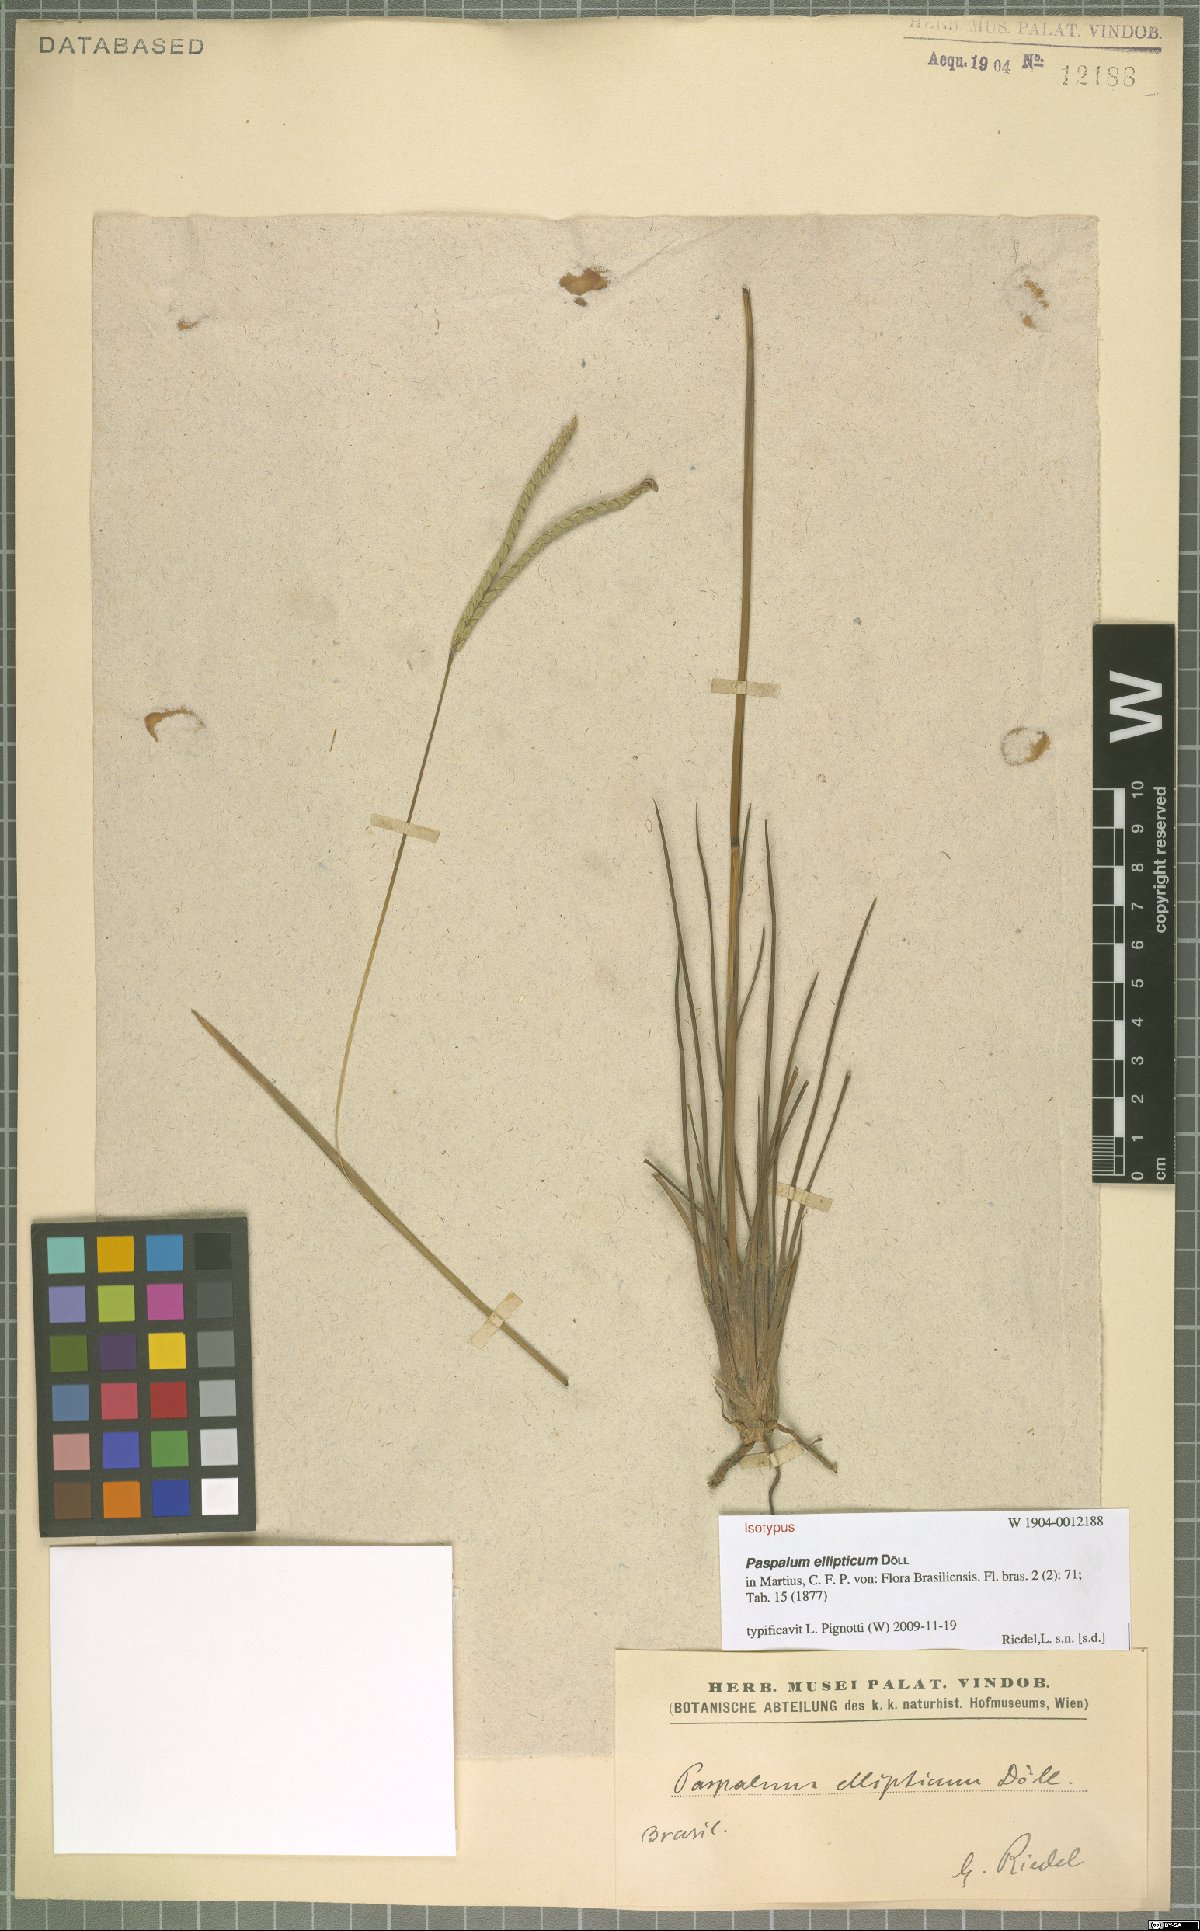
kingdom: Plantae
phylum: Tracheophyta
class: Liliopsida
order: Poales
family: Poaceae
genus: Paspalum
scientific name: Paspalum ellipticum
